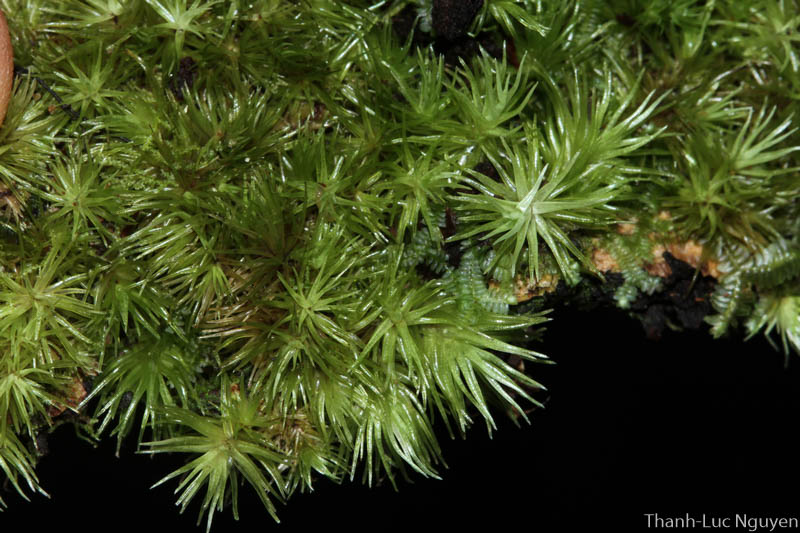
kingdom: Plantae
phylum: Bryophyta
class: Bryopsida
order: Dicranales
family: Leucobryaceae
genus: Leucobryum
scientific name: Leucobryum
